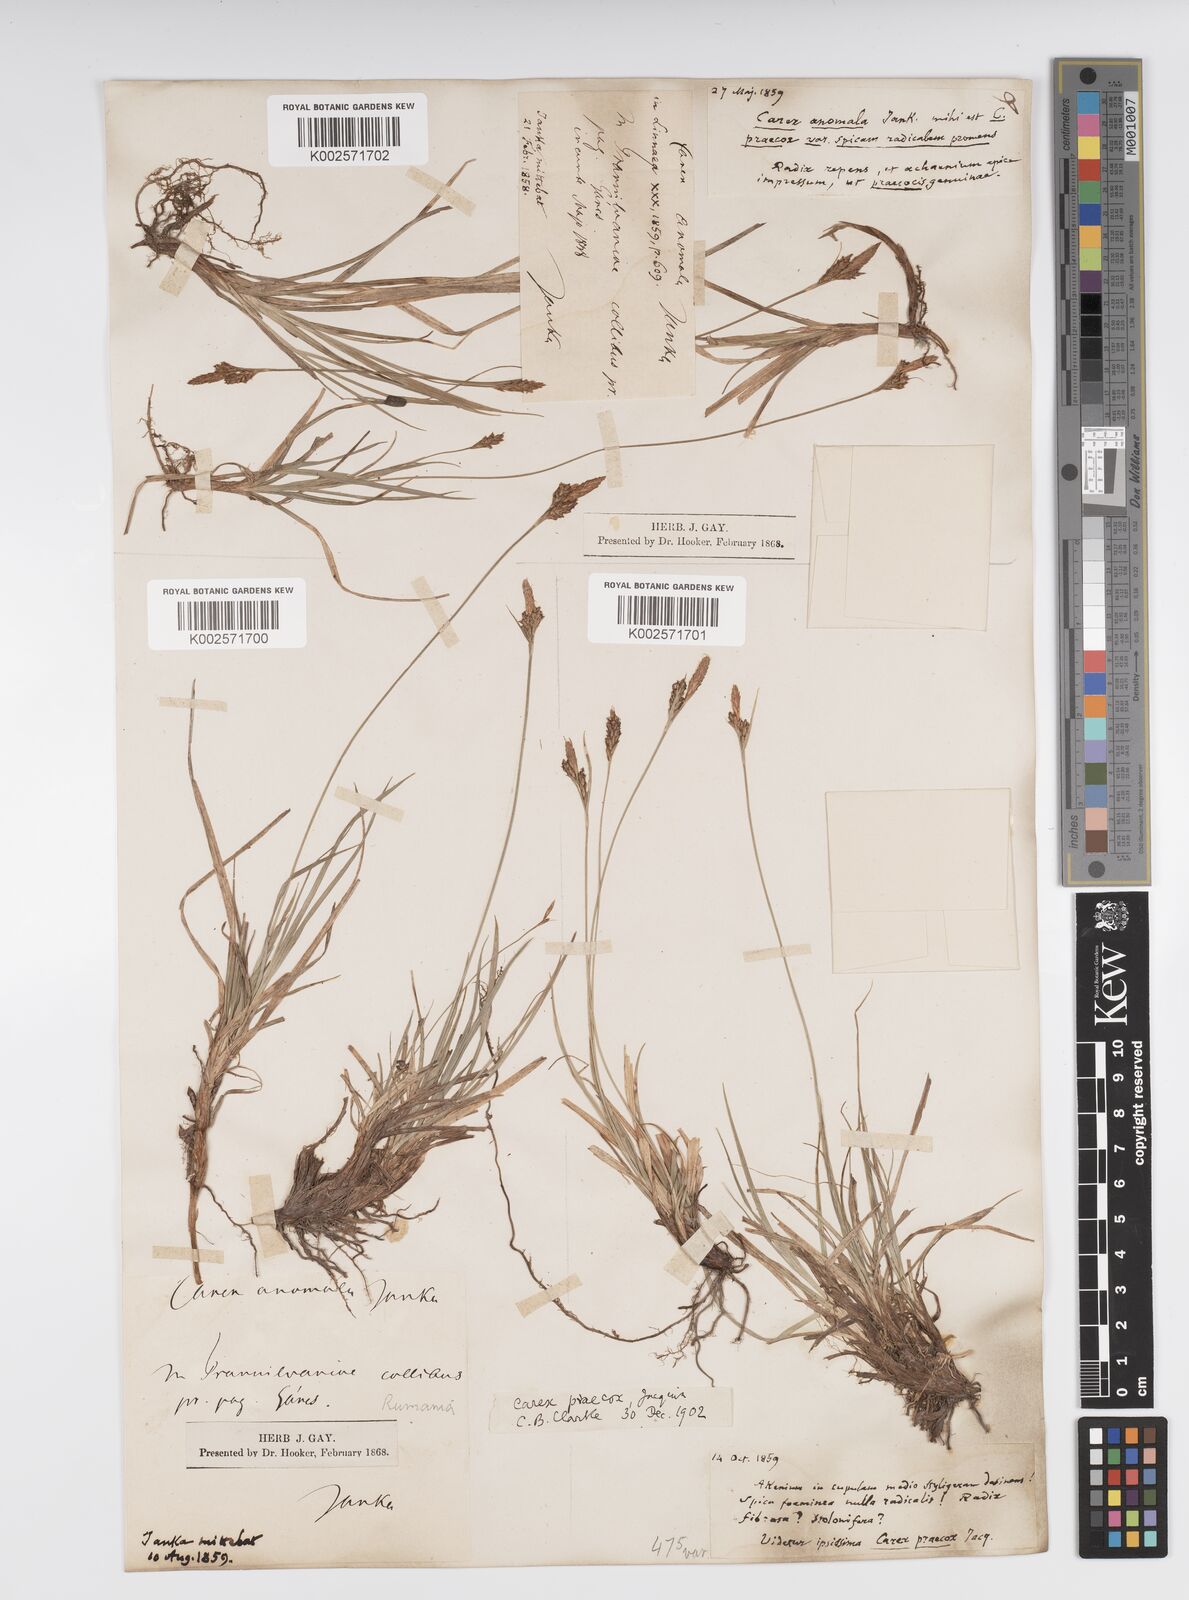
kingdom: Plantae
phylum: Tracheophyta
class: Liliopsida
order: Poales
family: Cyperaceae
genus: Carex
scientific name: Carex caryophyllea
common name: Spring sedge
